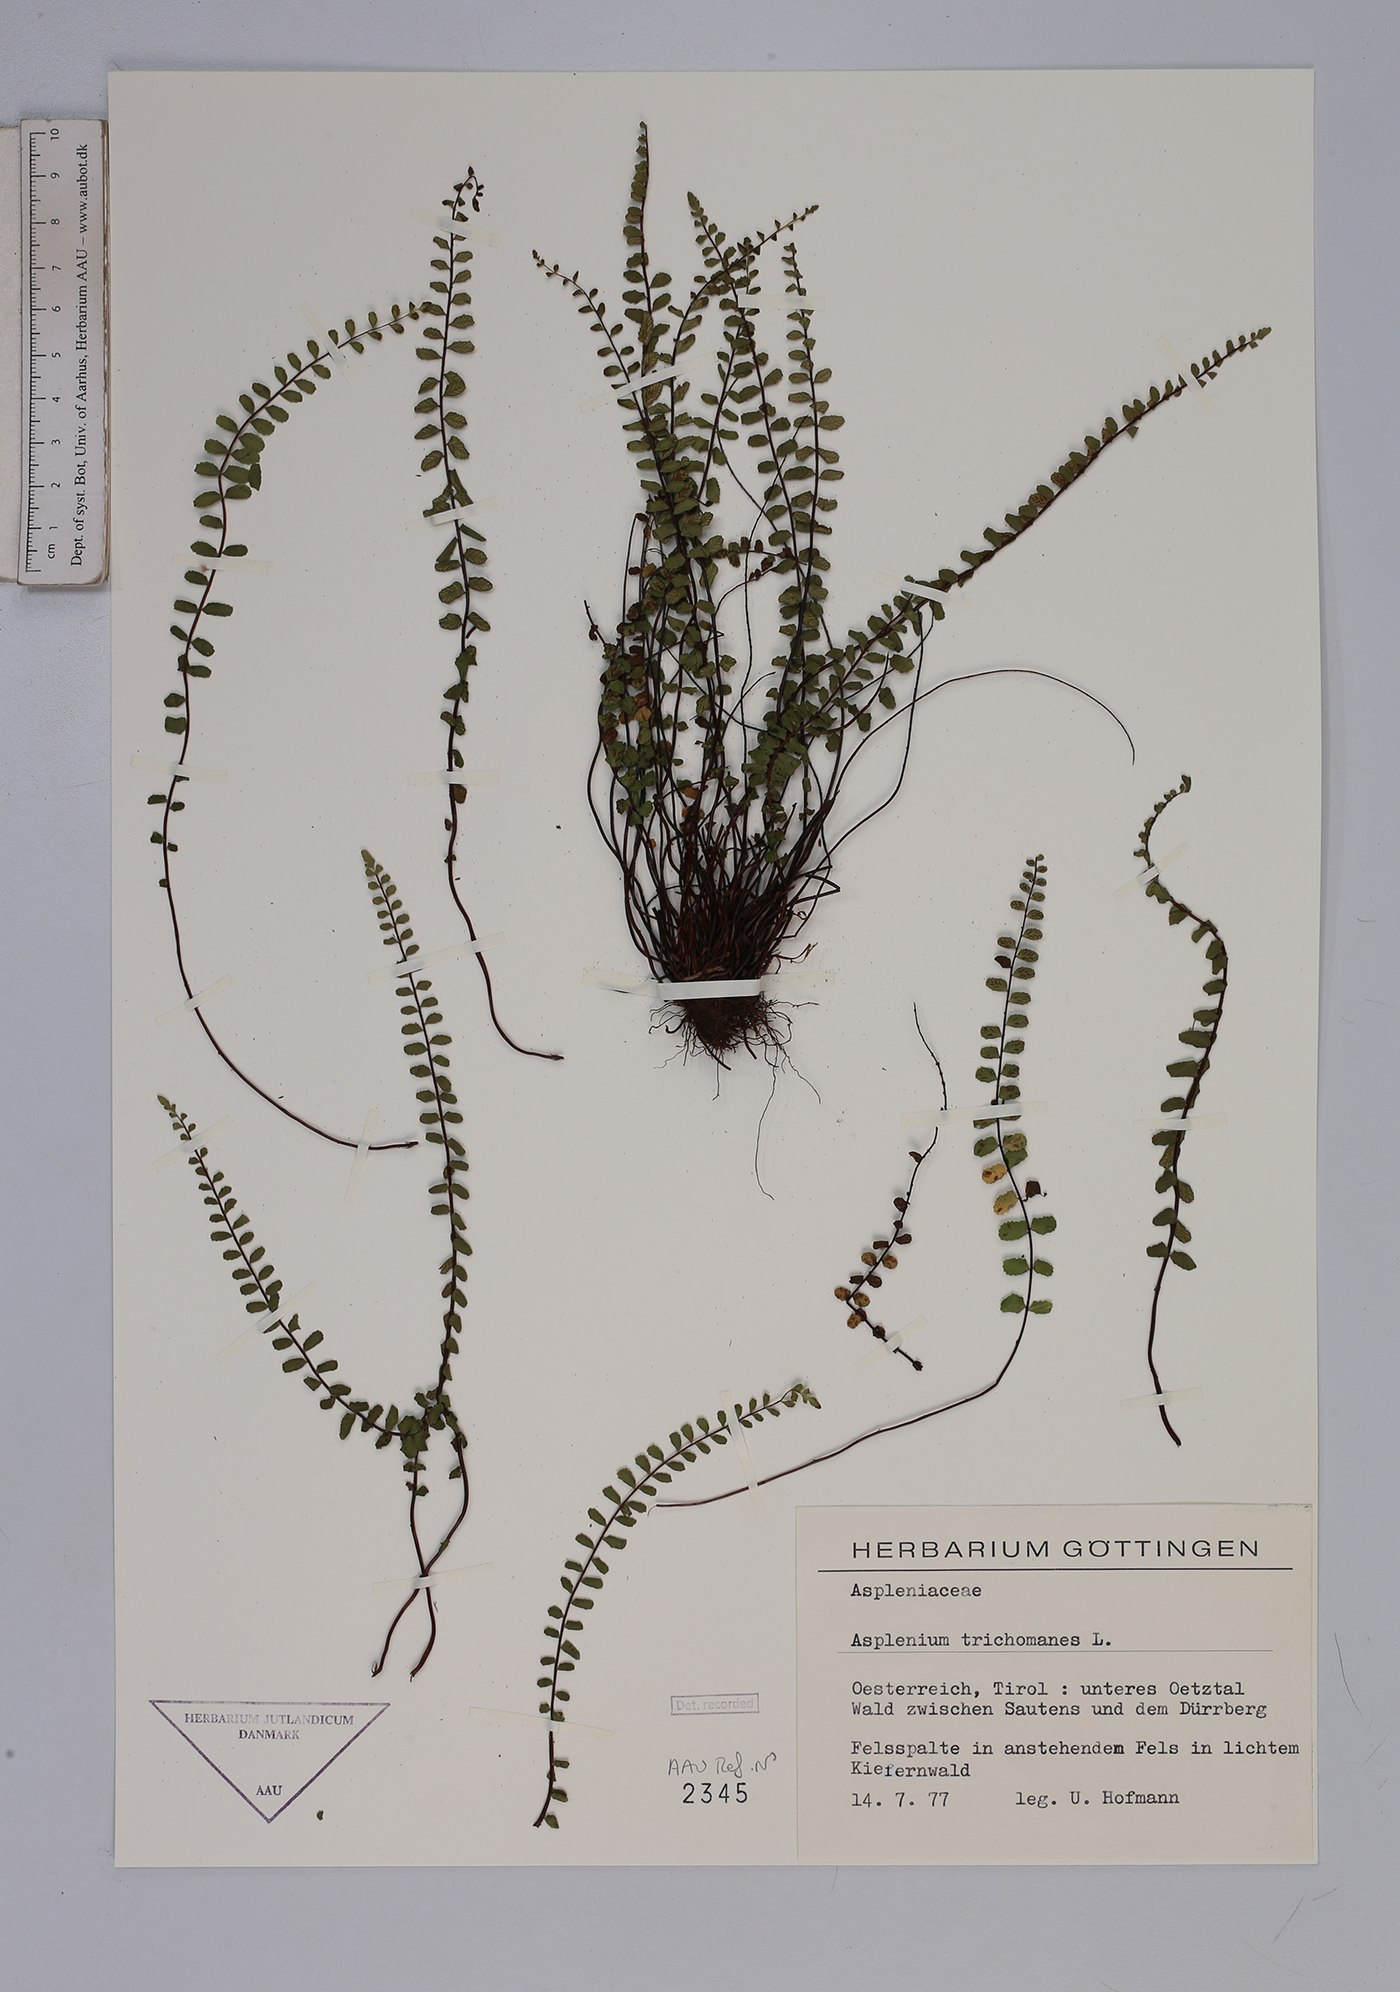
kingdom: Plantae
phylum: Tracheophyta
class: Polypodiopsida
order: Polypodiales
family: Aspleniaceae
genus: Asplenium
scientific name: Asplenium trichomanes
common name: Maidenhair spleenwort
